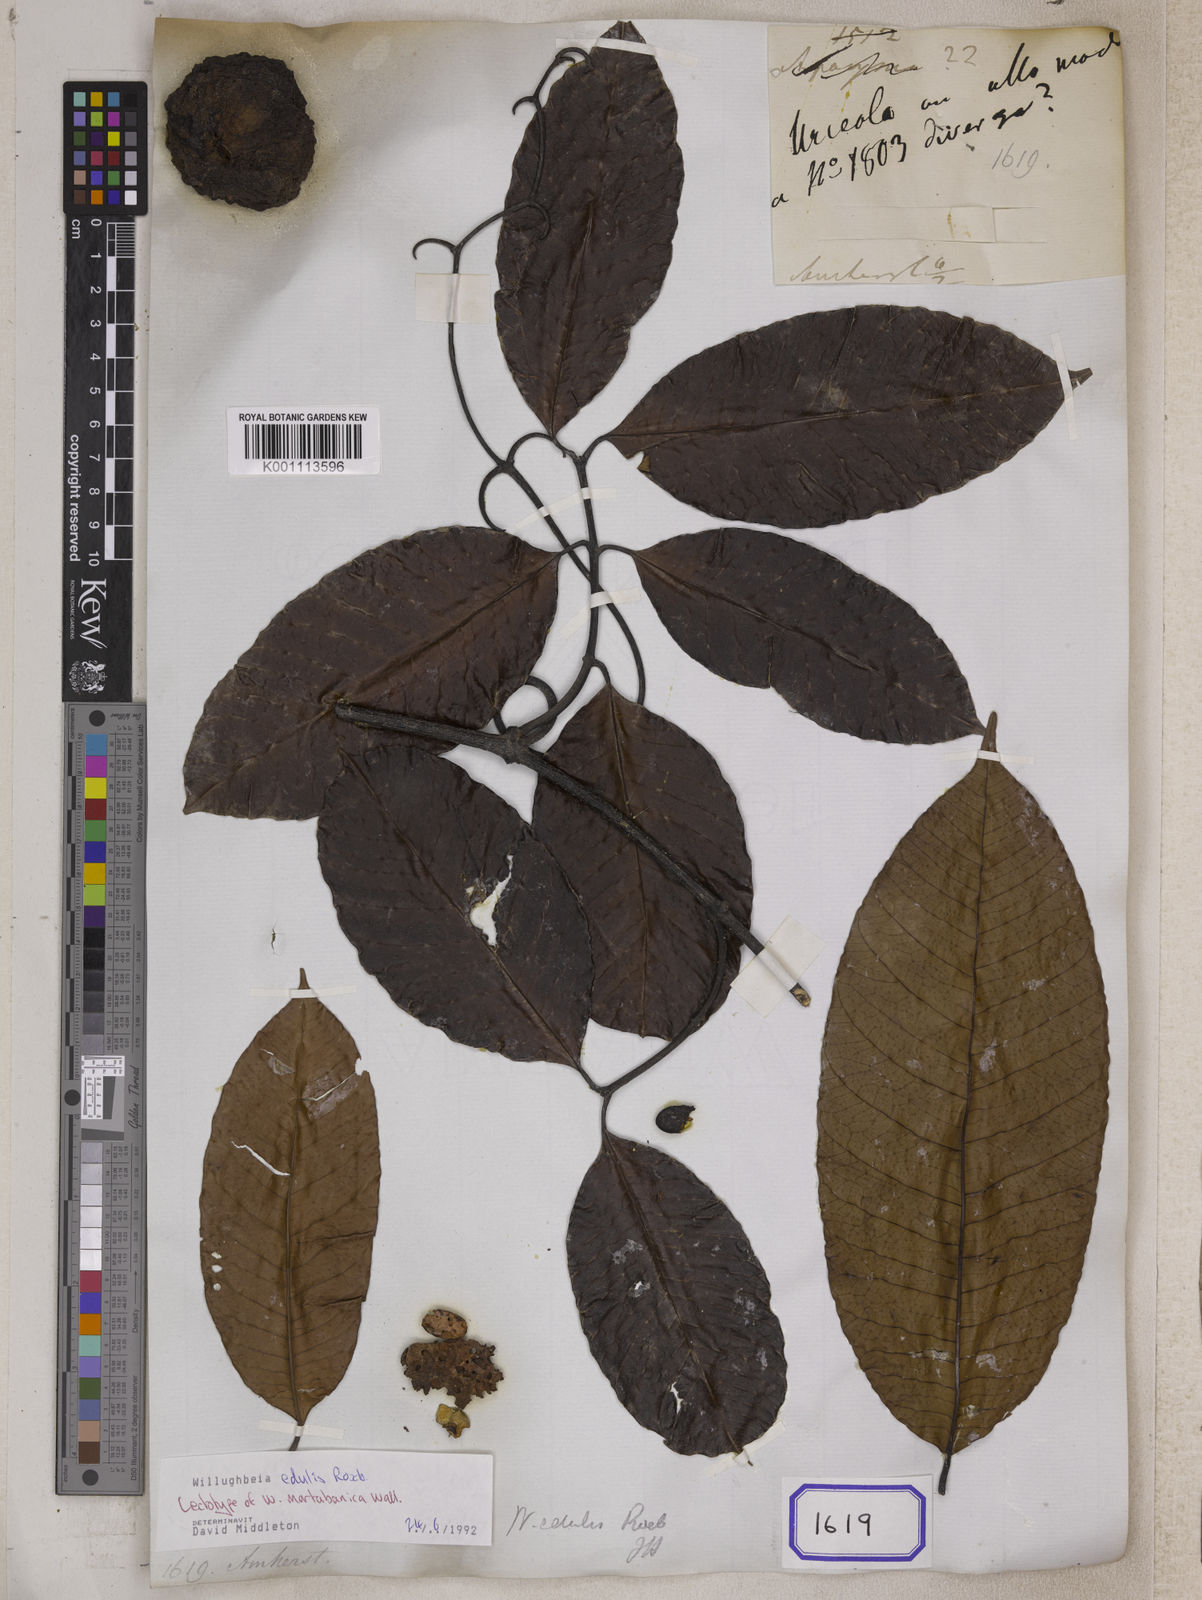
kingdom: Plantae
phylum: Tracheophyta
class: Magnoliopsida
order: Gentianales
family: Apocynaceae
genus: Willughbeia
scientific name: Willughbeia edulis
